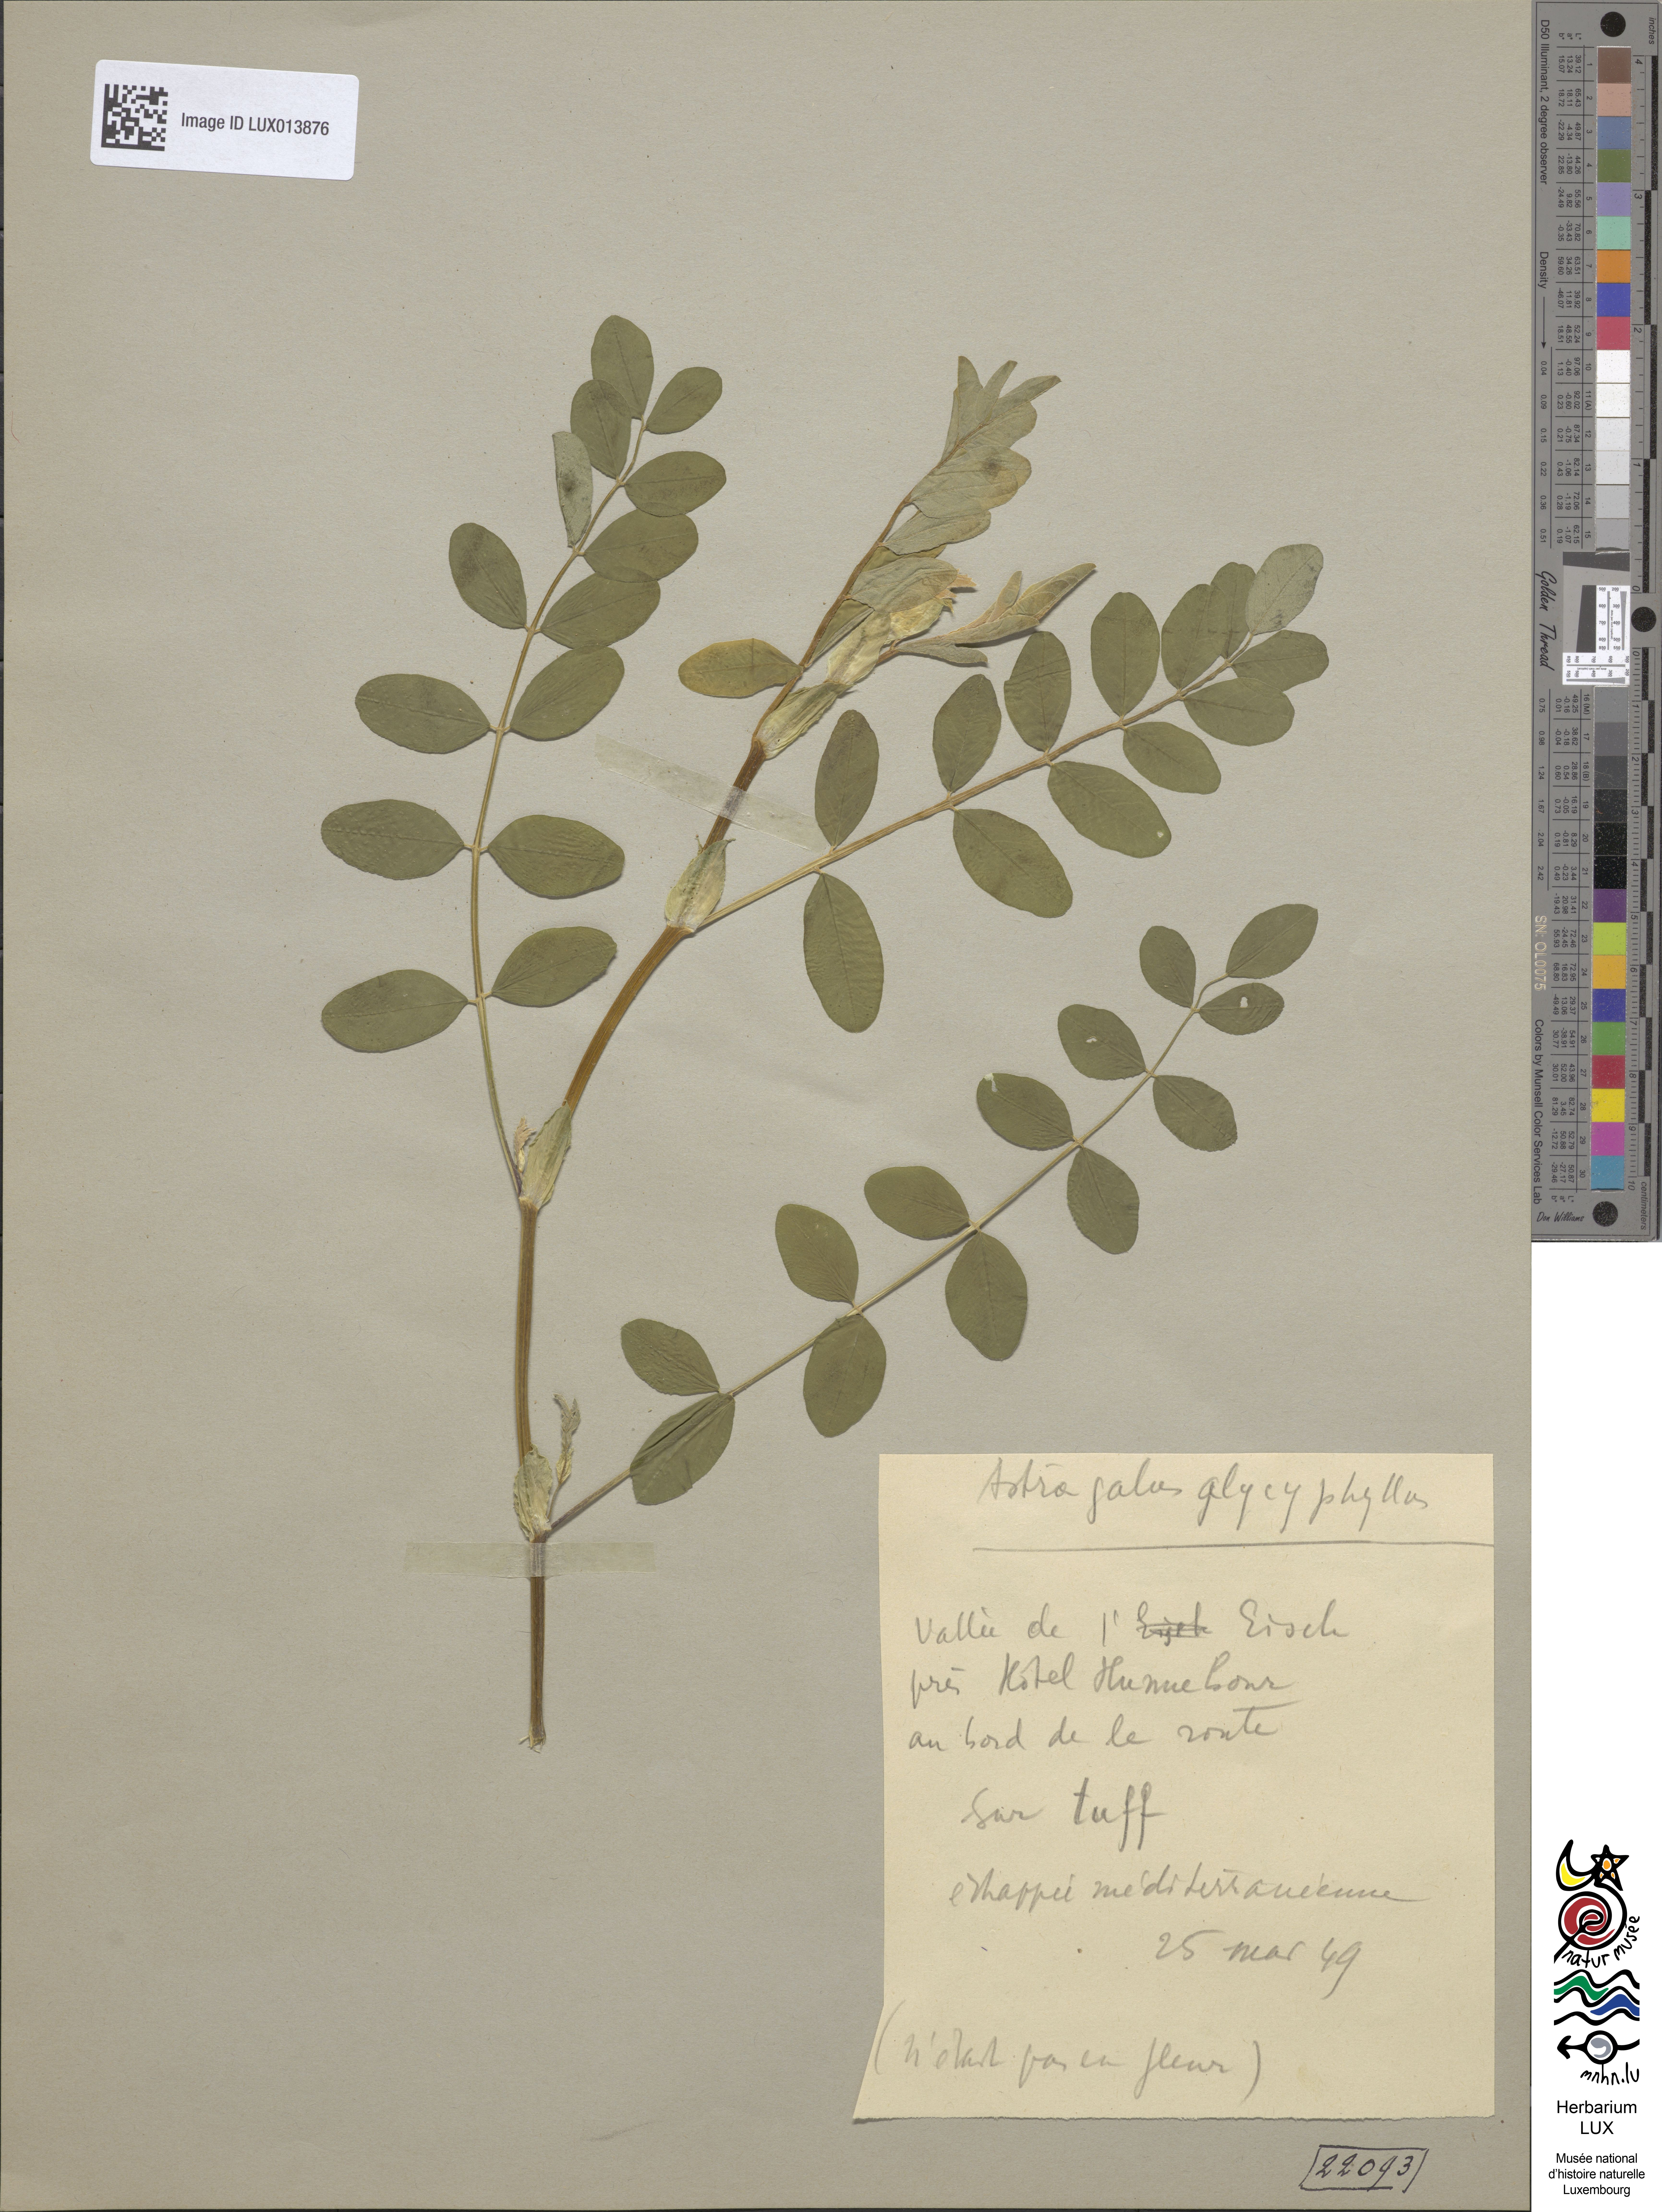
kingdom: Plantae
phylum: Tracheophyta
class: Magnoliopsida
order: Fabales
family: Fabaceae
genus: Astragalus
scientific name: Astragalus glycyphyllos
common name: Wild liquorice
